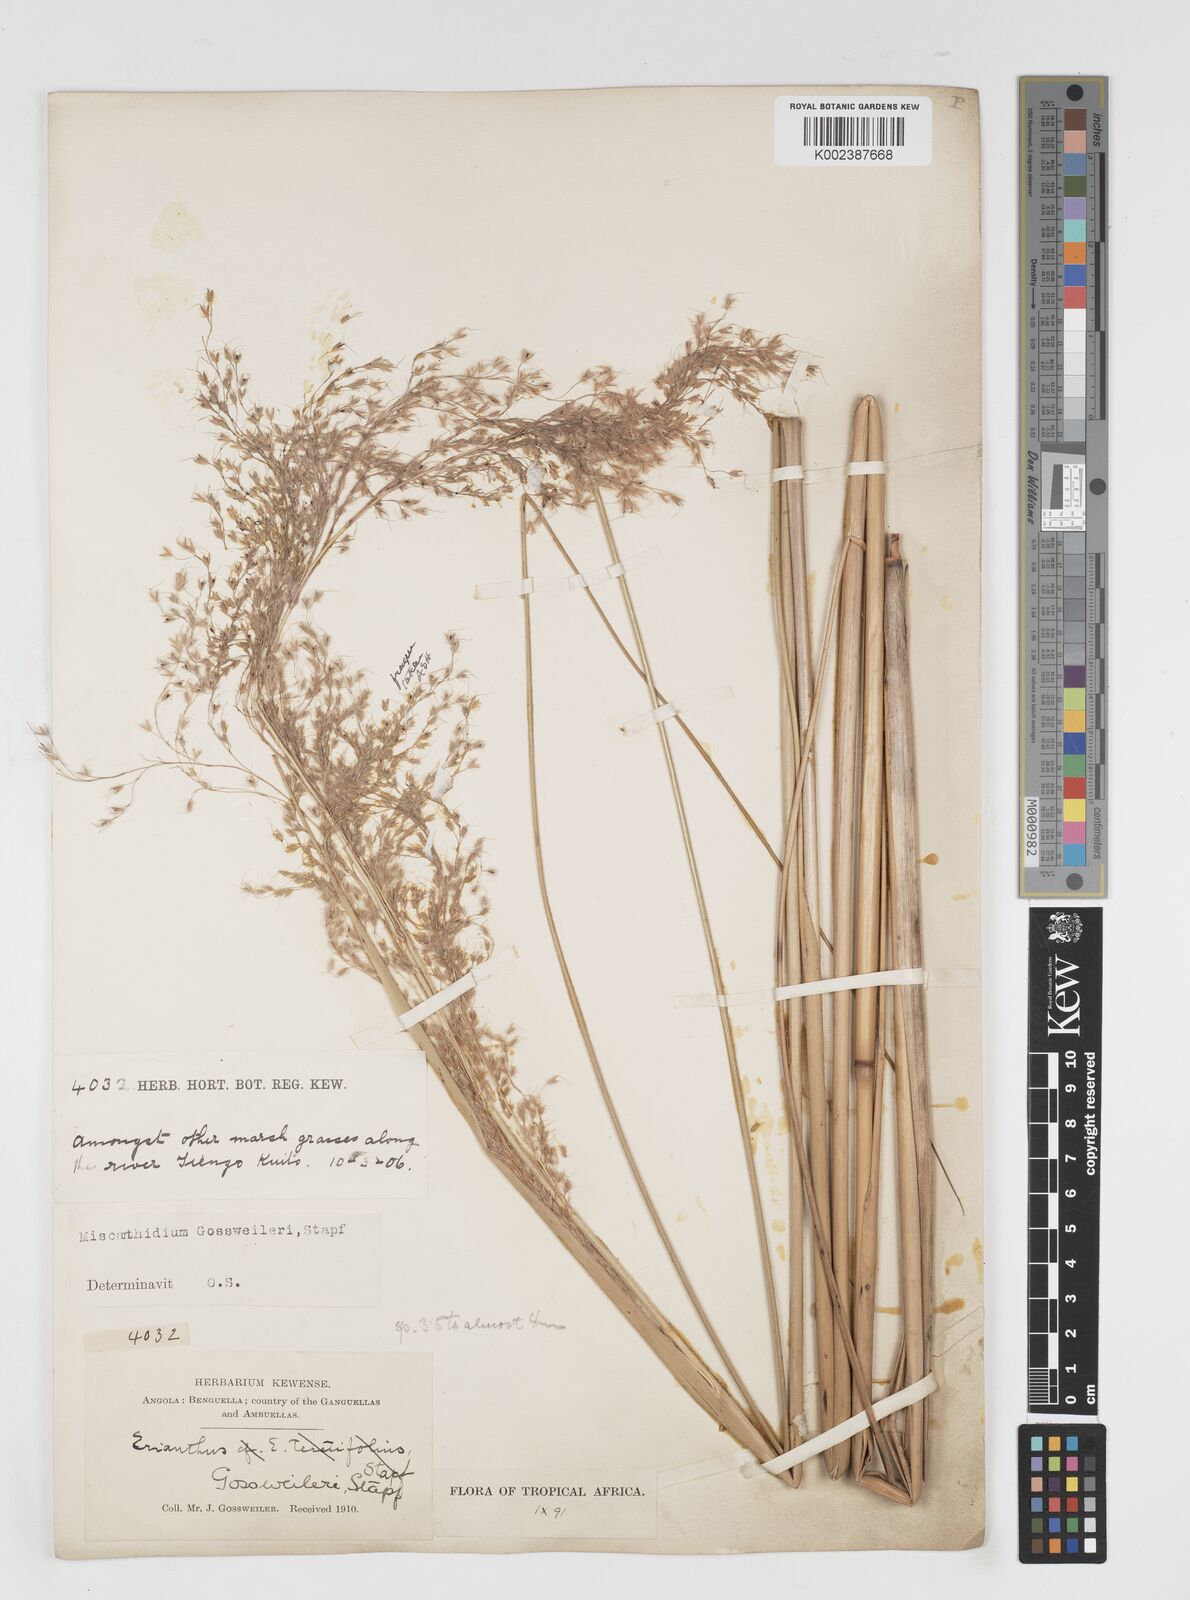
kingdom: Plantae
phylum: Tracheophyta
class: Liliopsida
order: Poales
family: Poaceae
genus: Miscanthidium
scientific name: Miscanthidium junceum
